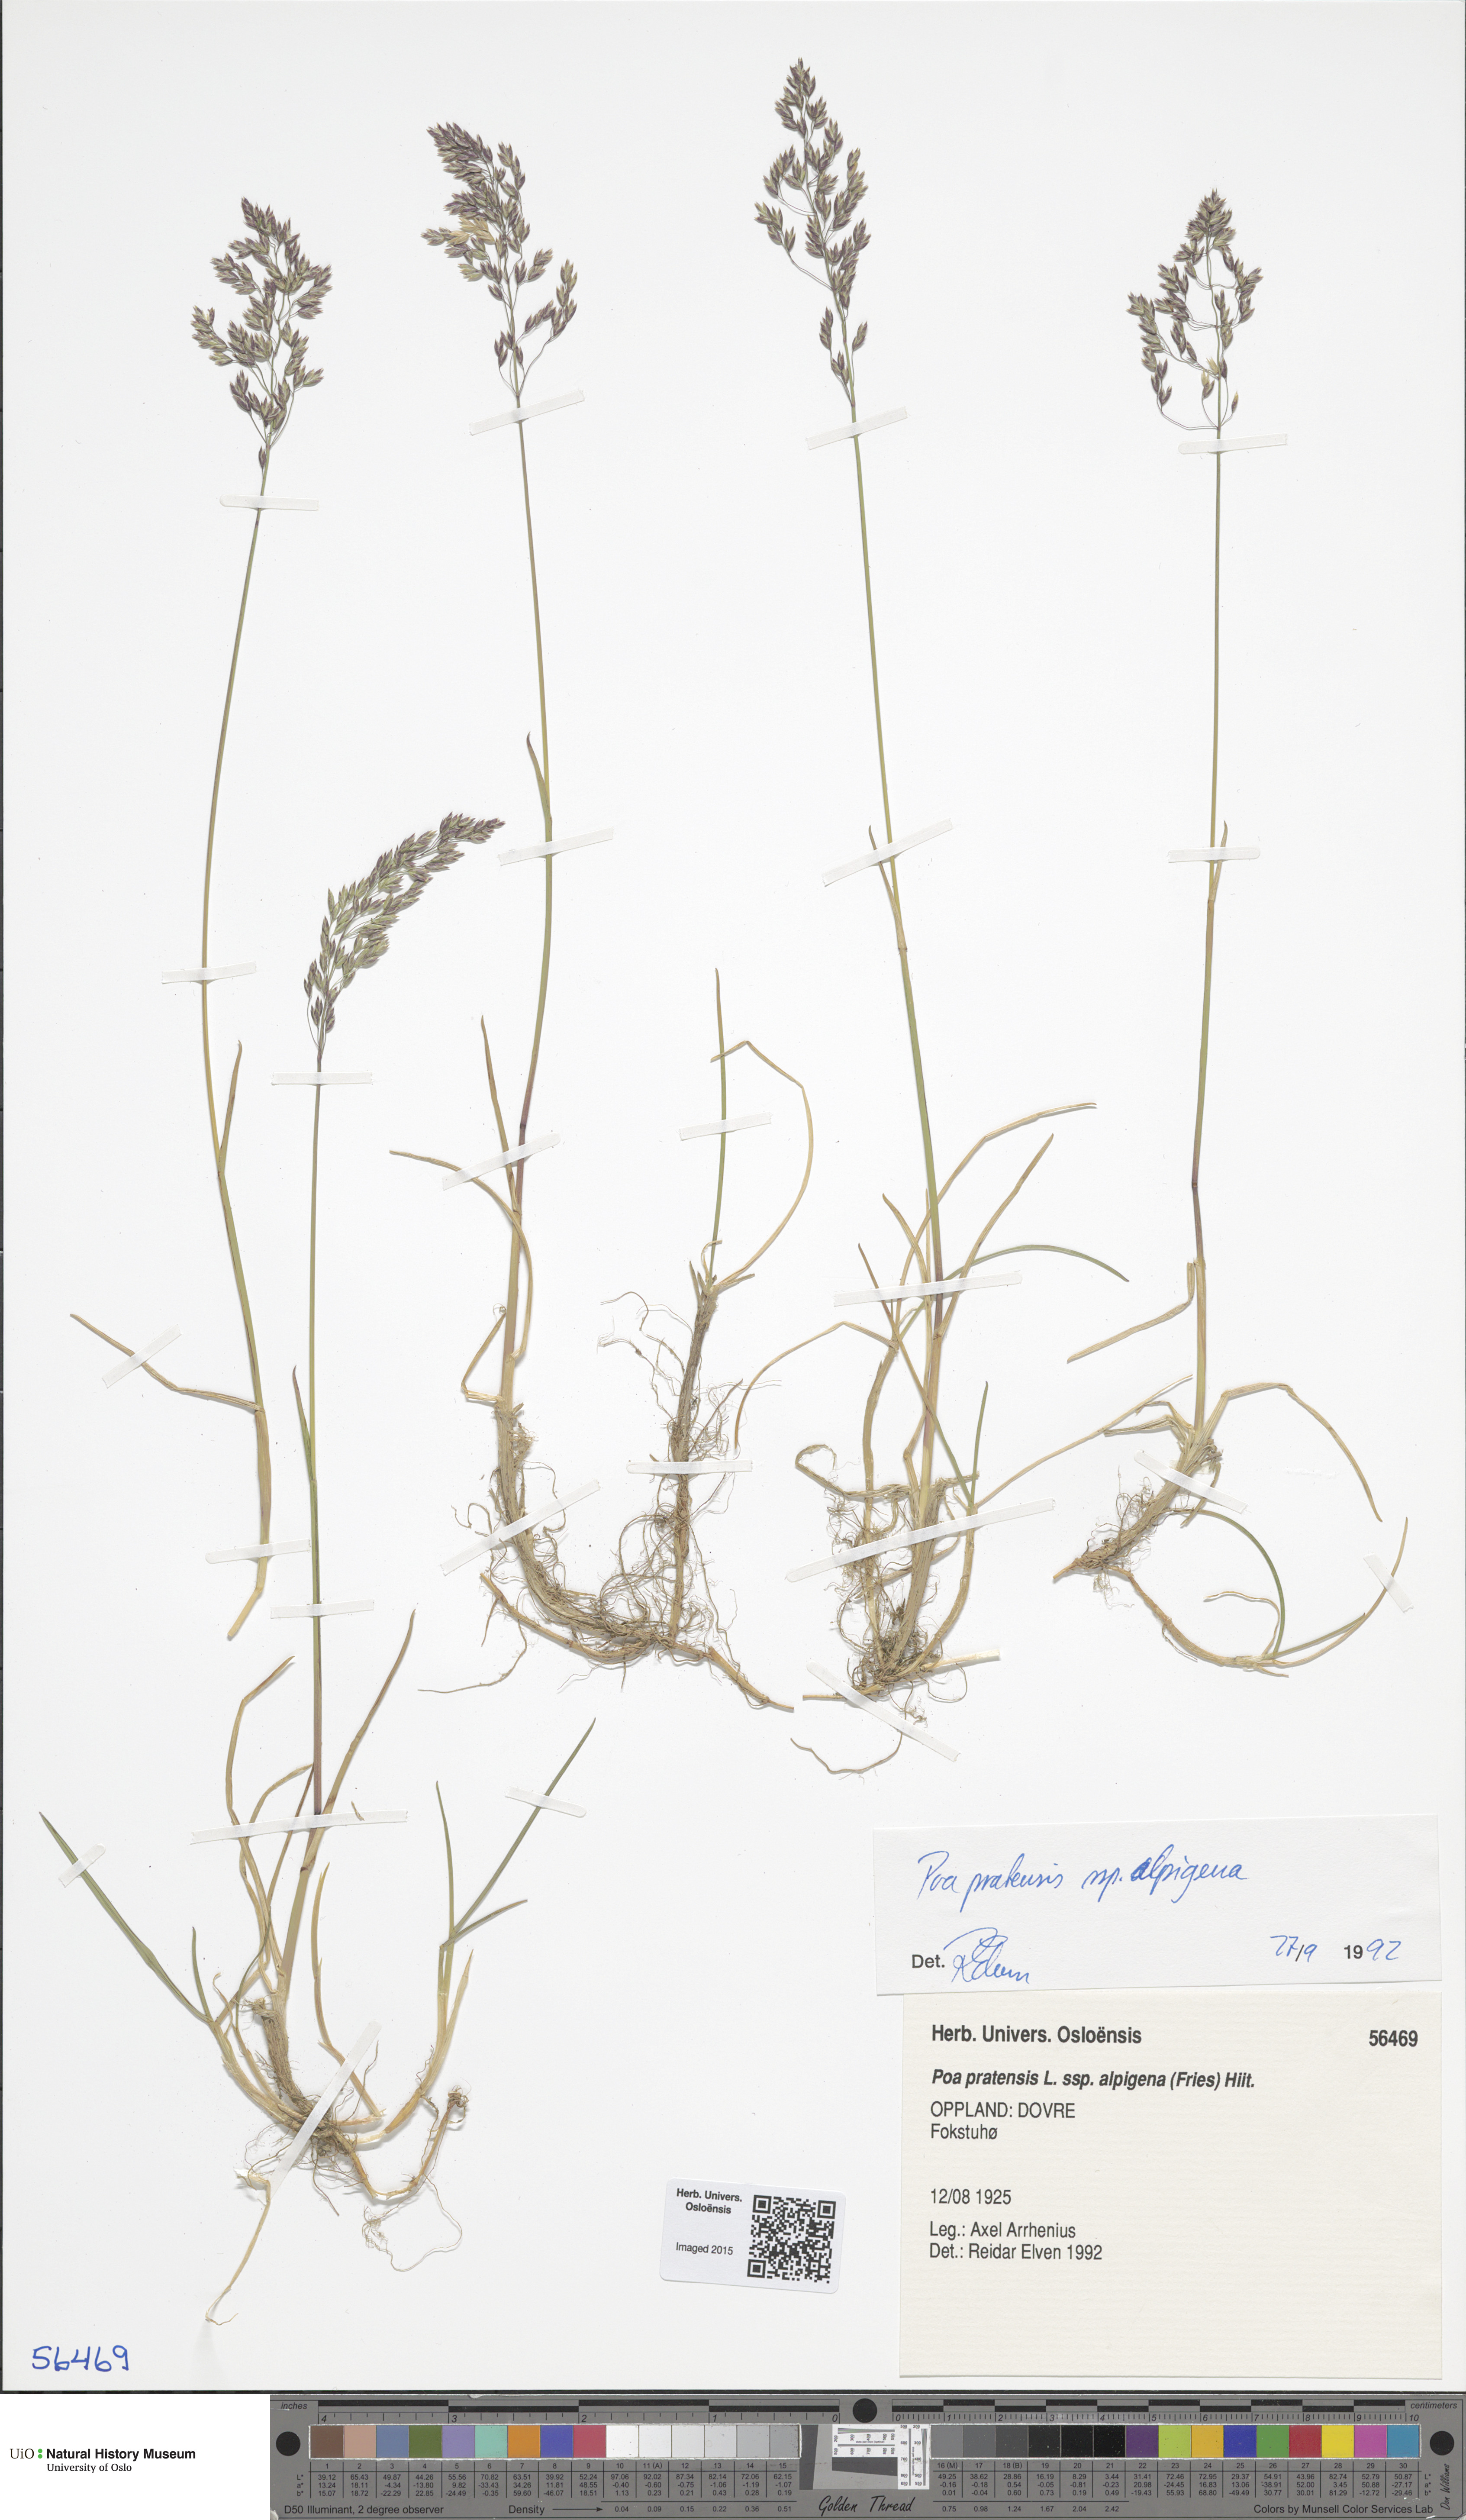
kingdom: Plantae
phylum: Tracheophyta
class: Liliopsida
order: Poales
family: Poaceae
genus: Poa
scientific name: Poa alpigena
